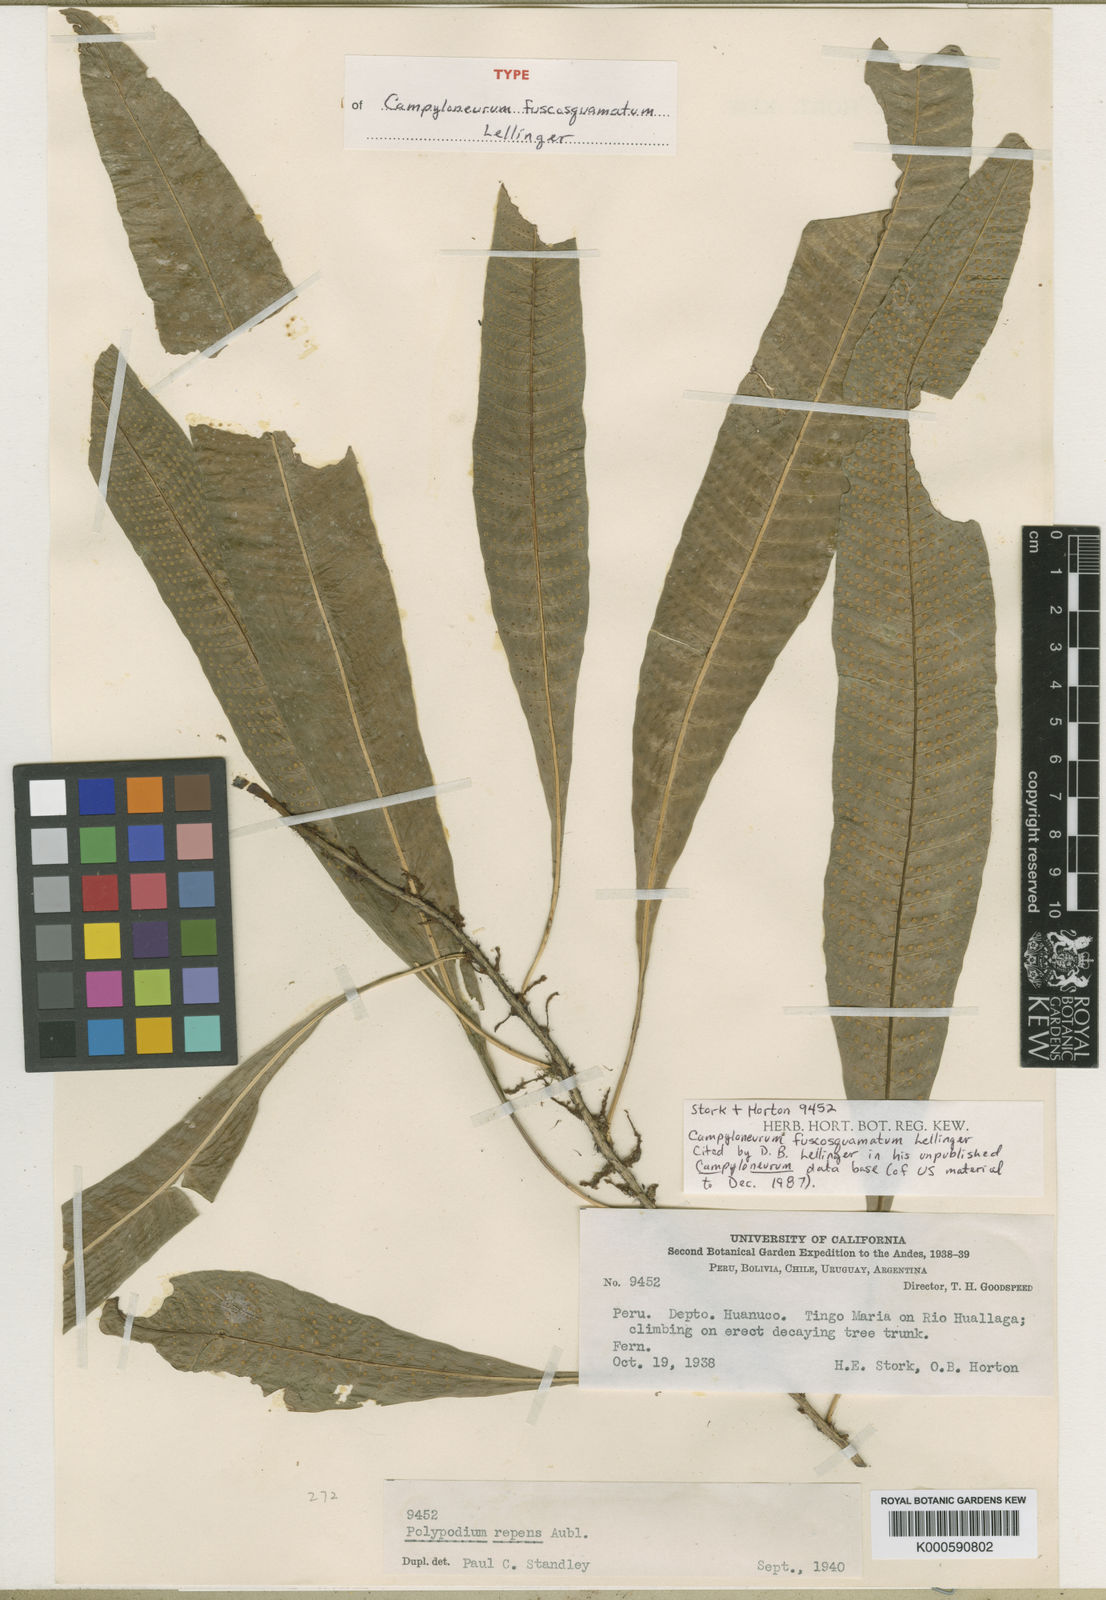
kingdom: Plantae
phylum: Tracheophyta
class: Polypodiopsida
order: Polypodiales
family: Polypodiaceae
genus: Campyloneurum
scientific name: Campyloneurum fuscosquamatum
